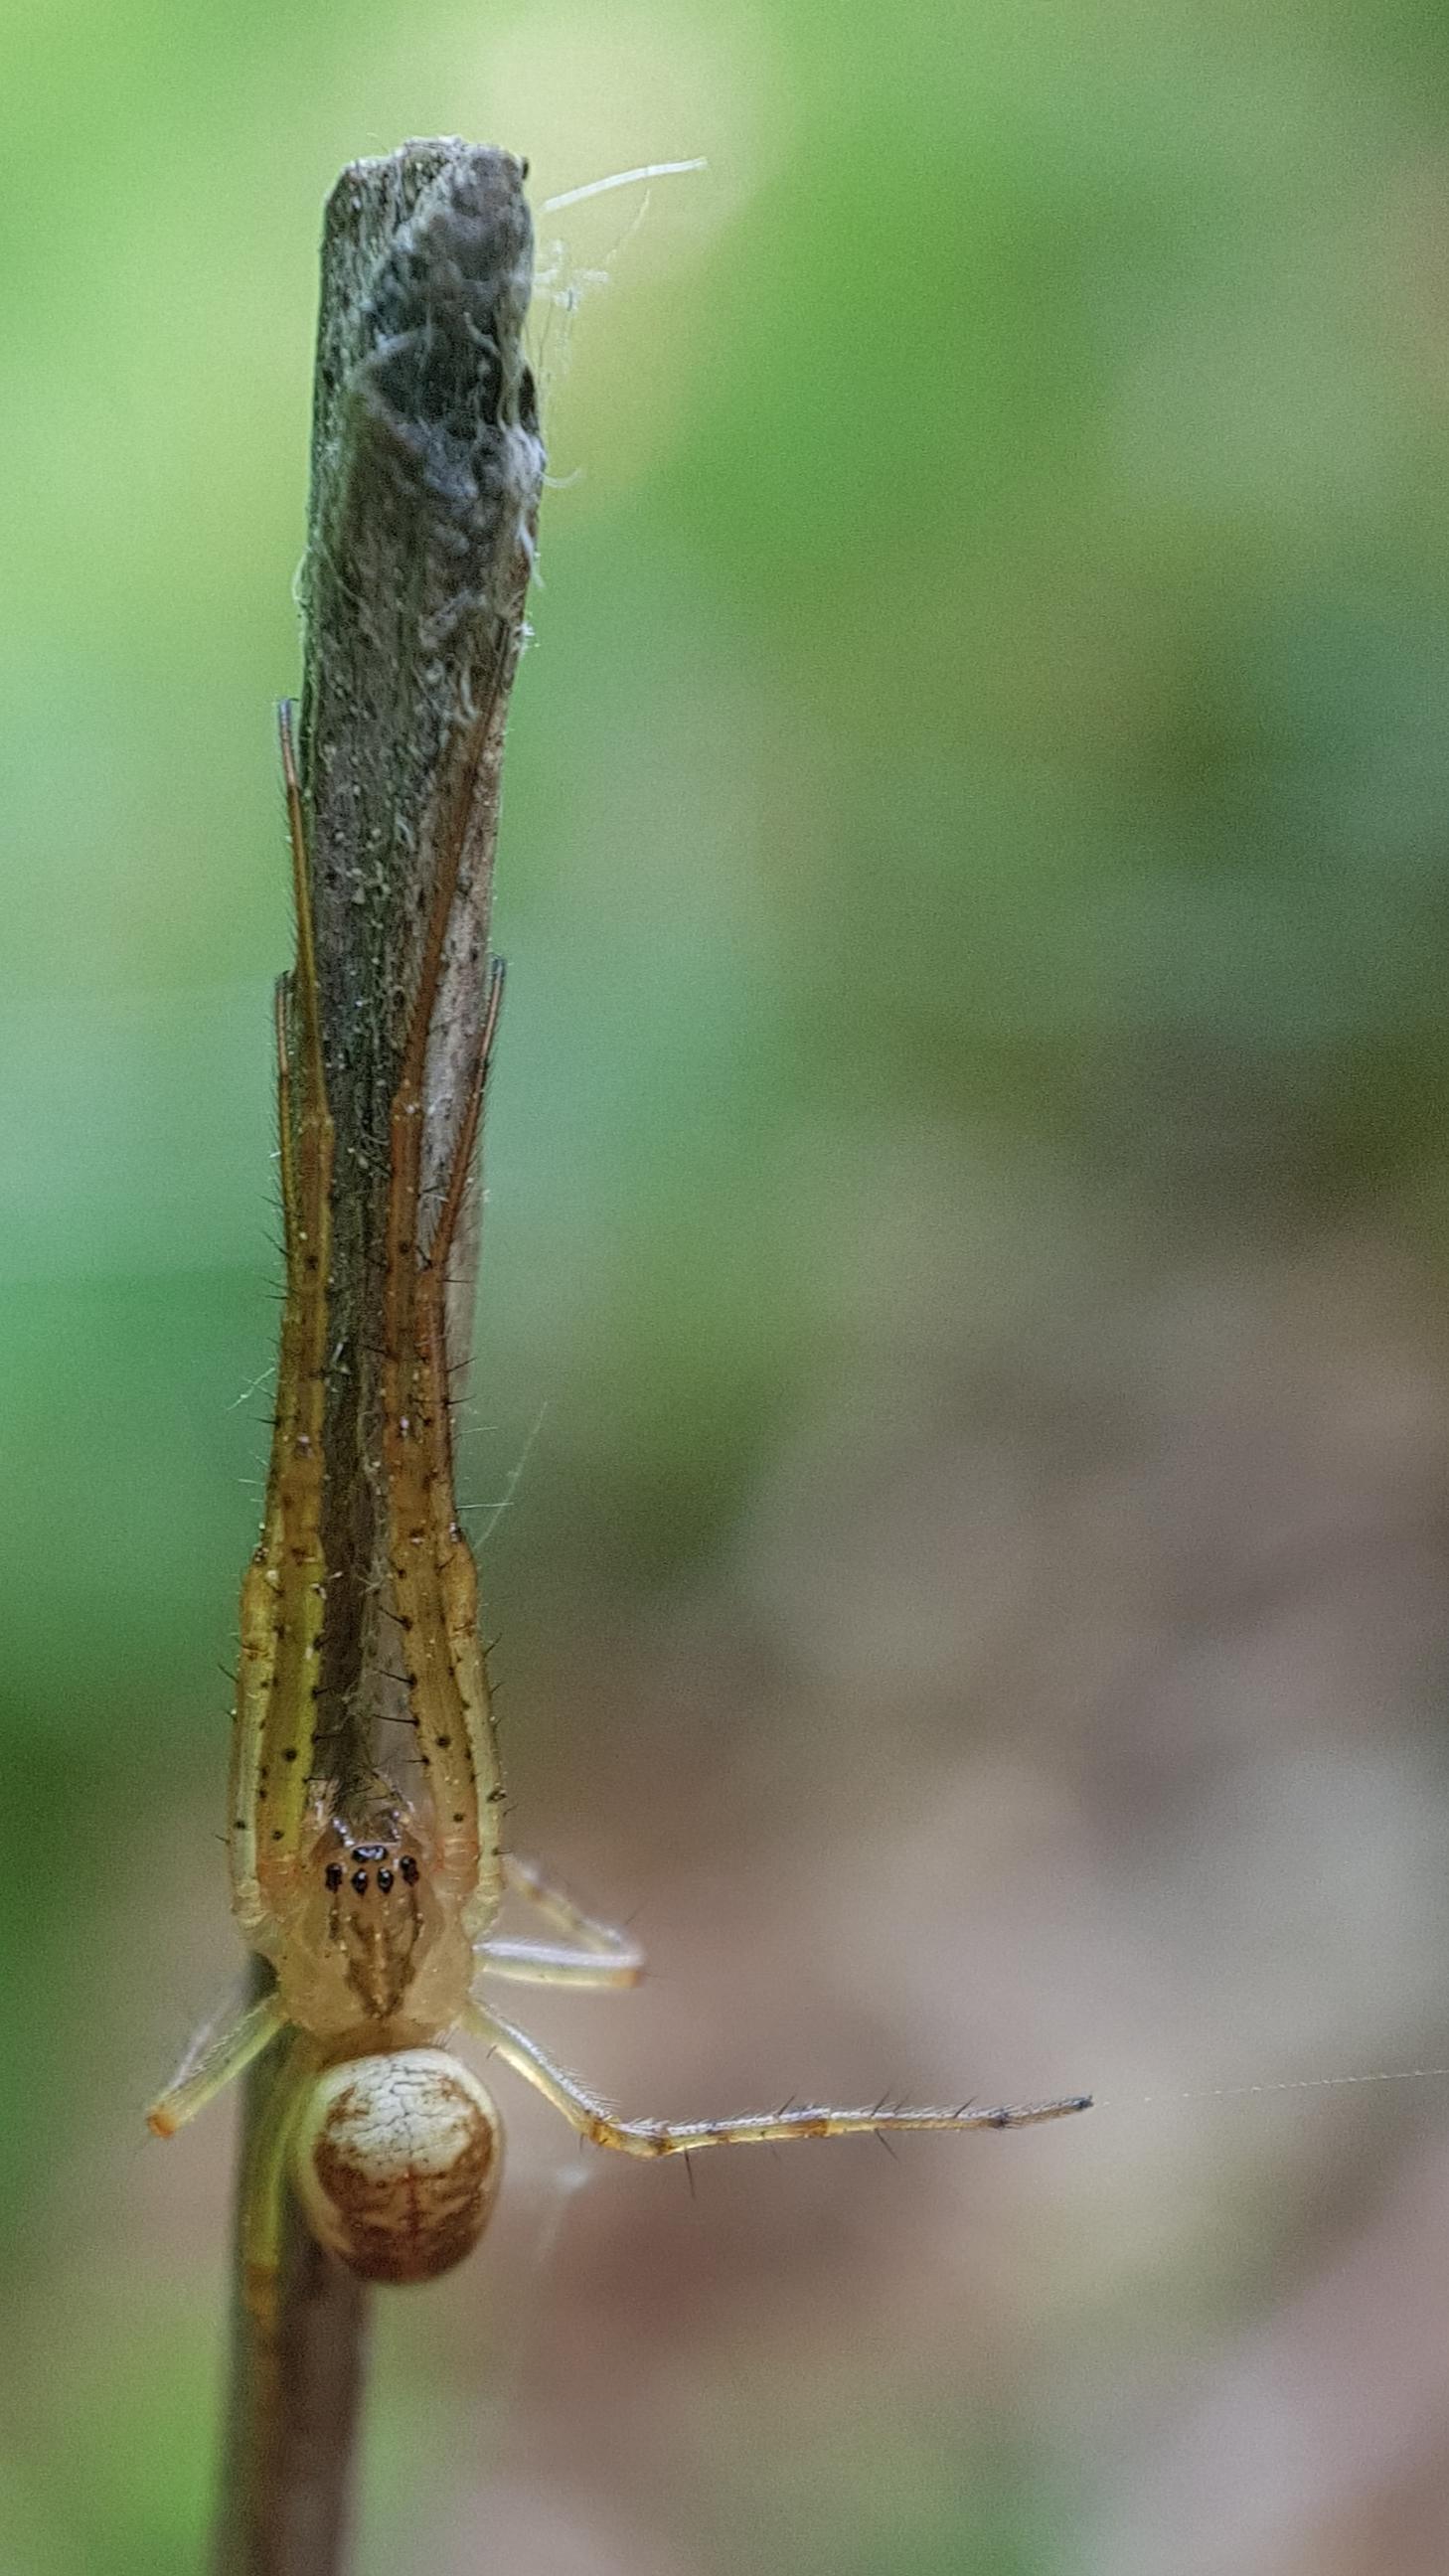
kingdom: Animalia
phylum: Arthropoda
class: Arachnida
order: Araneae
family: Tetragnathidae
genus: Metellina
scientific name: Metellina
